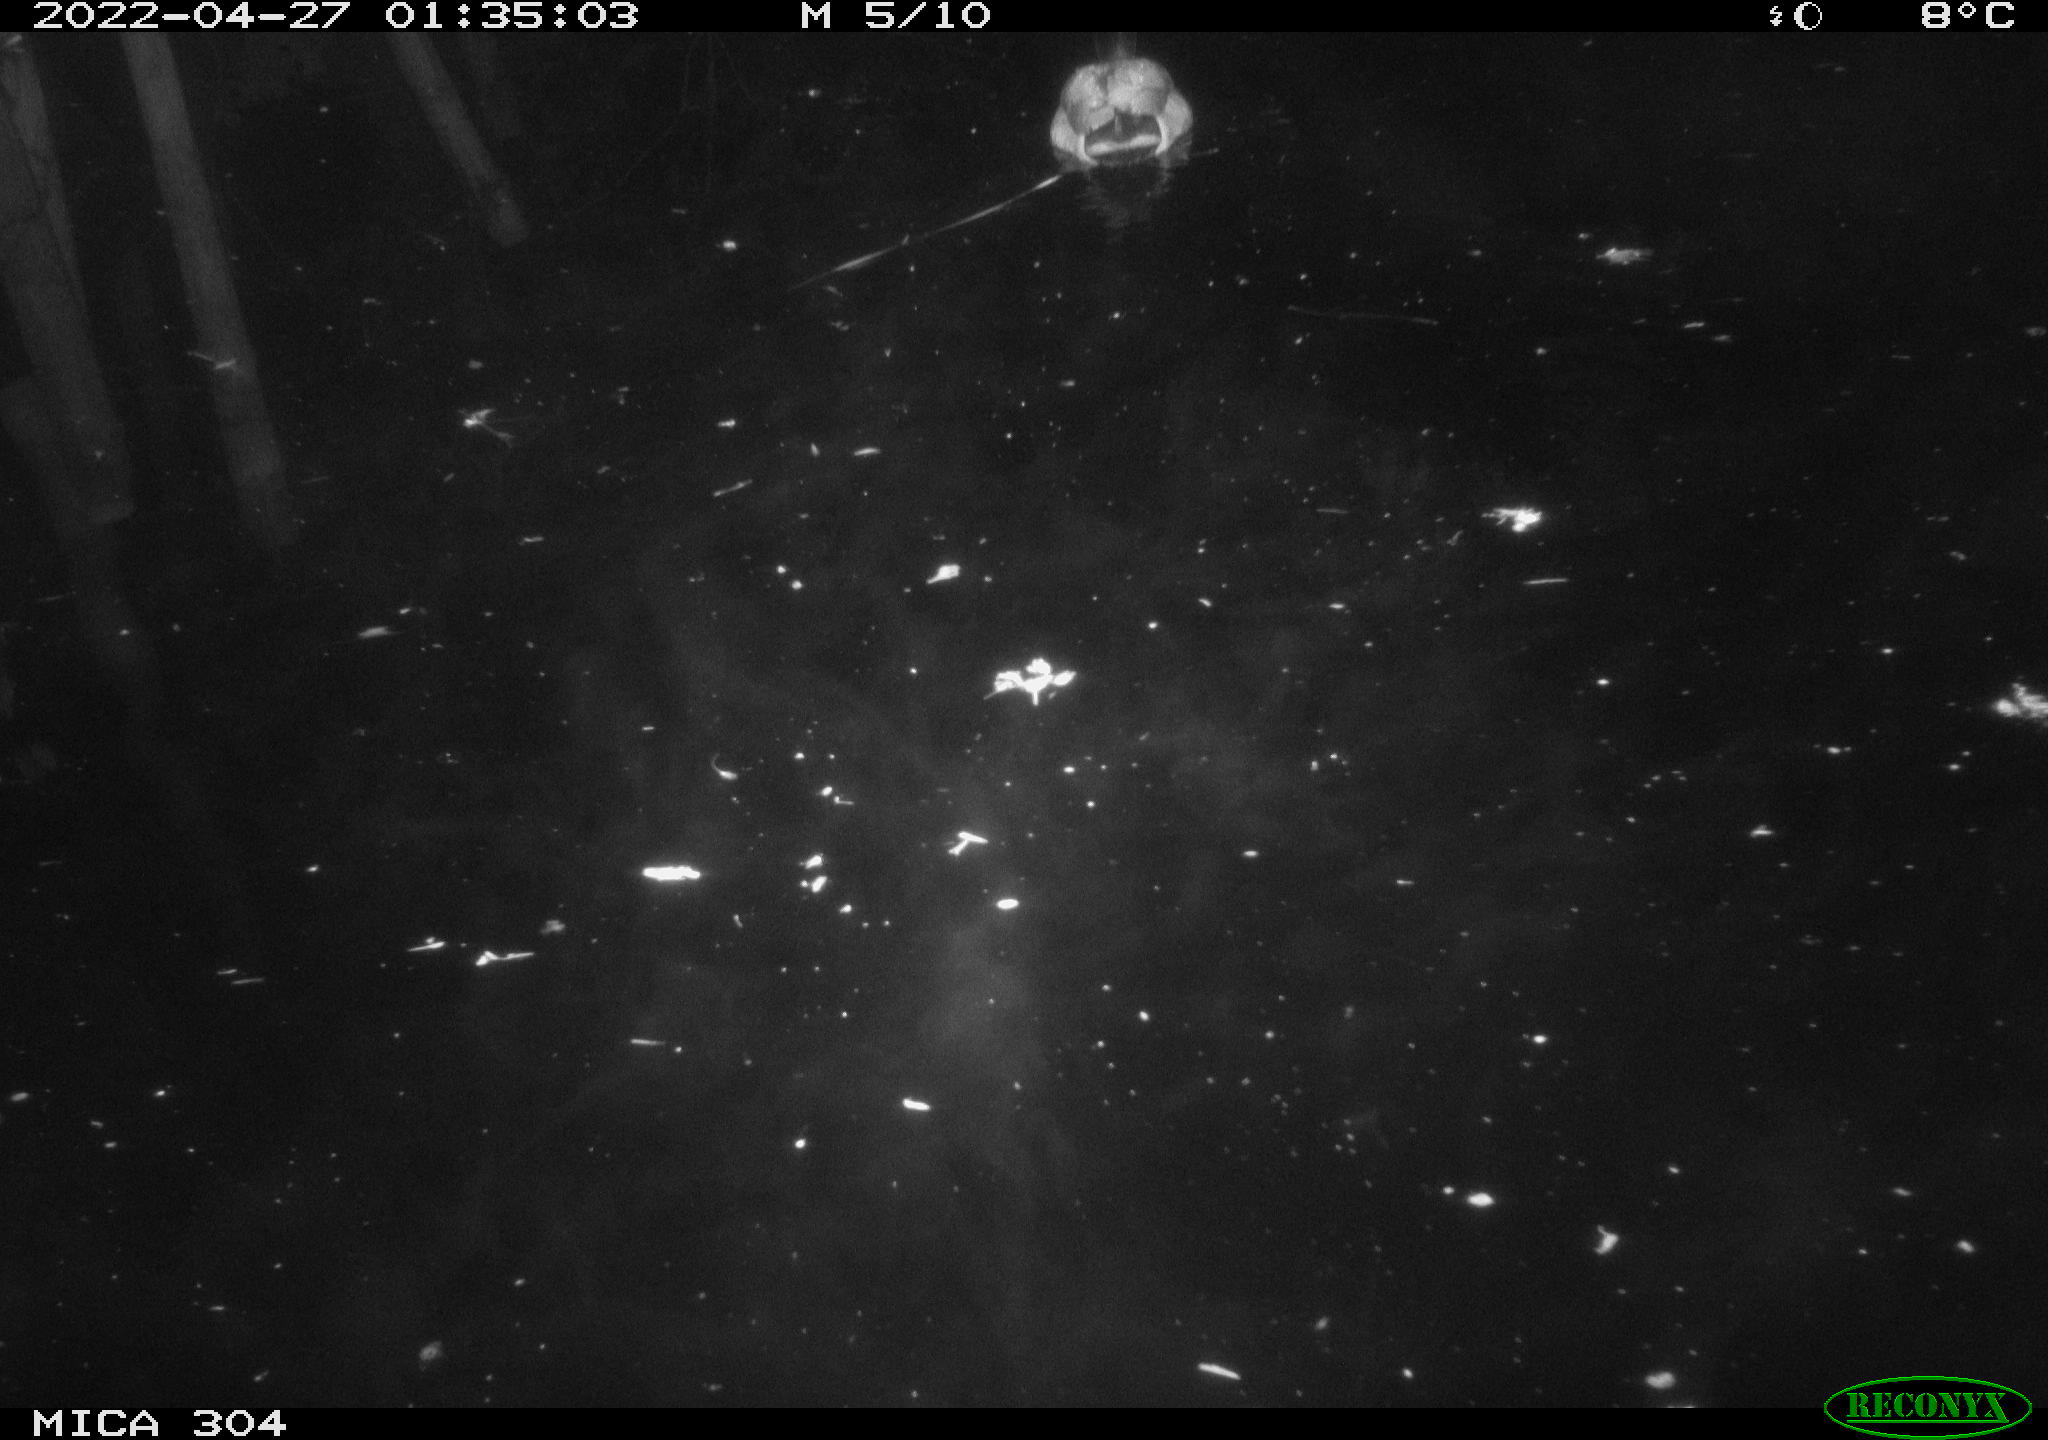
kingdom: Animalia
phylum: Chordata
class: Aves
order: Anseriformes
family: Anatidae
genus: Anas
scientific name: Anas platyrhynchos
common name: Mallard
